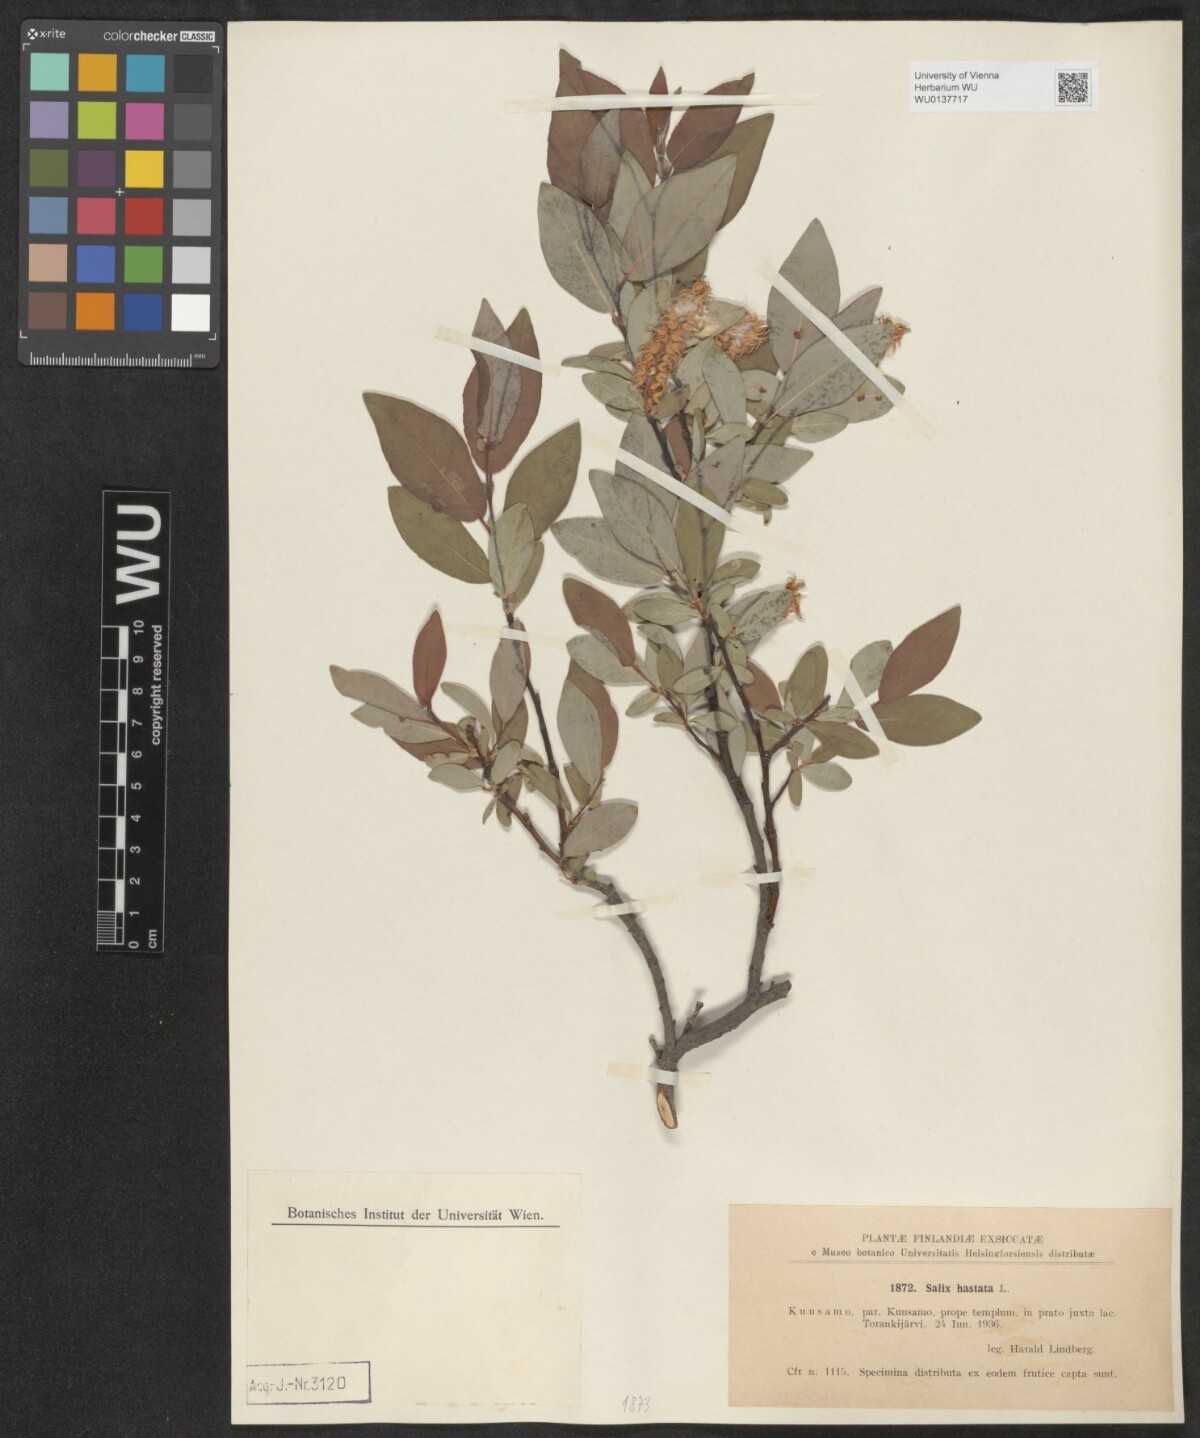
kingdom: Plantae
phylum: Tracheophyta
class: Magnoliopsida
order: Malpighiales
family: Salicaceae
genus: Salix
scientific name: Salix hastata
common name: Halberd willow
